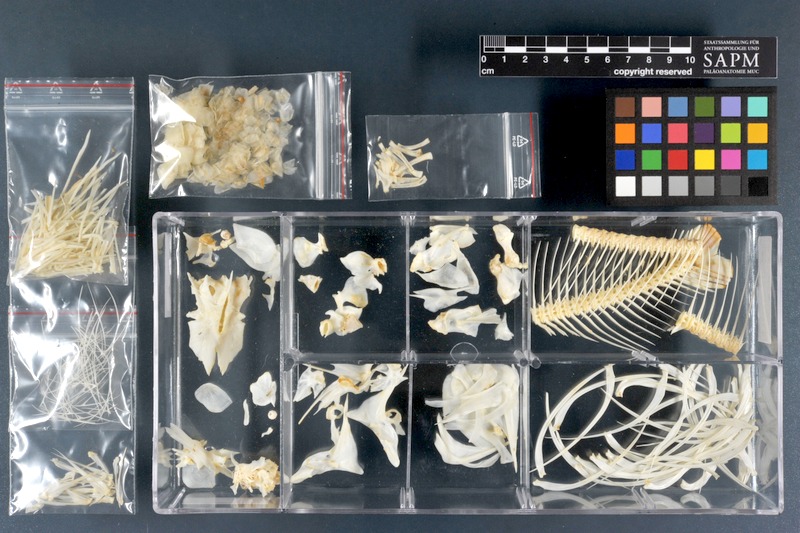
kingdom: Animalia
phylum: Chordata
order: Characiformes
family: Distichodontidae
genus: Distichodus
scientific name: Distichodus lusosso
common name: Longsnout distichodus
